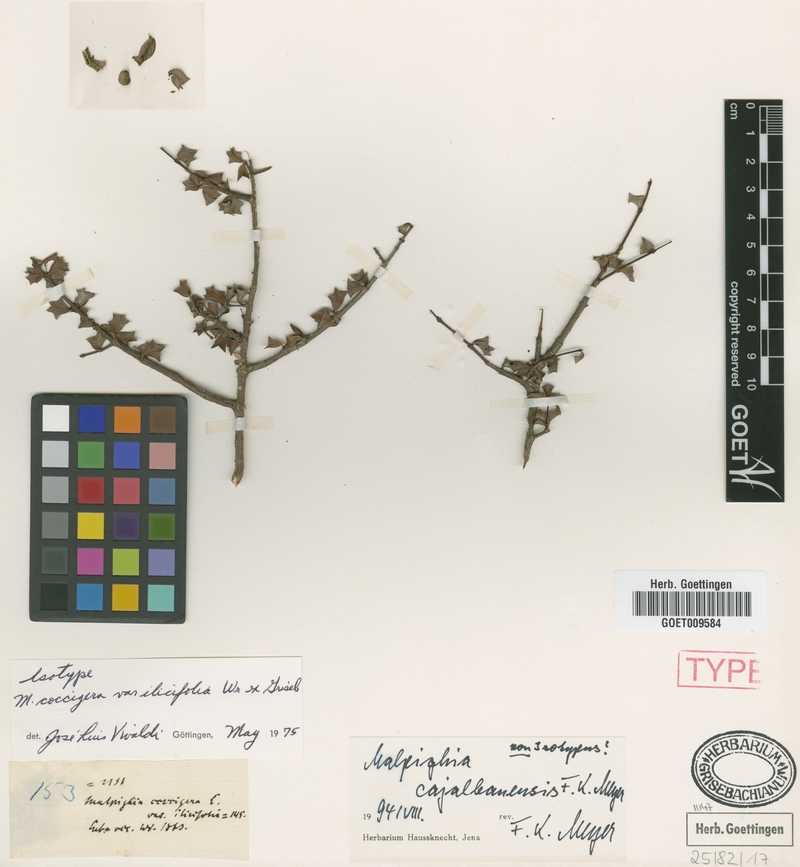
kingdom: Plantae
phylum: Tracheophyta
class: Magnoliopsida
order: Malpighiales
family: Malpighiaceae
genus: Malpighia
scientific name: Malpighia cajalbanensis
